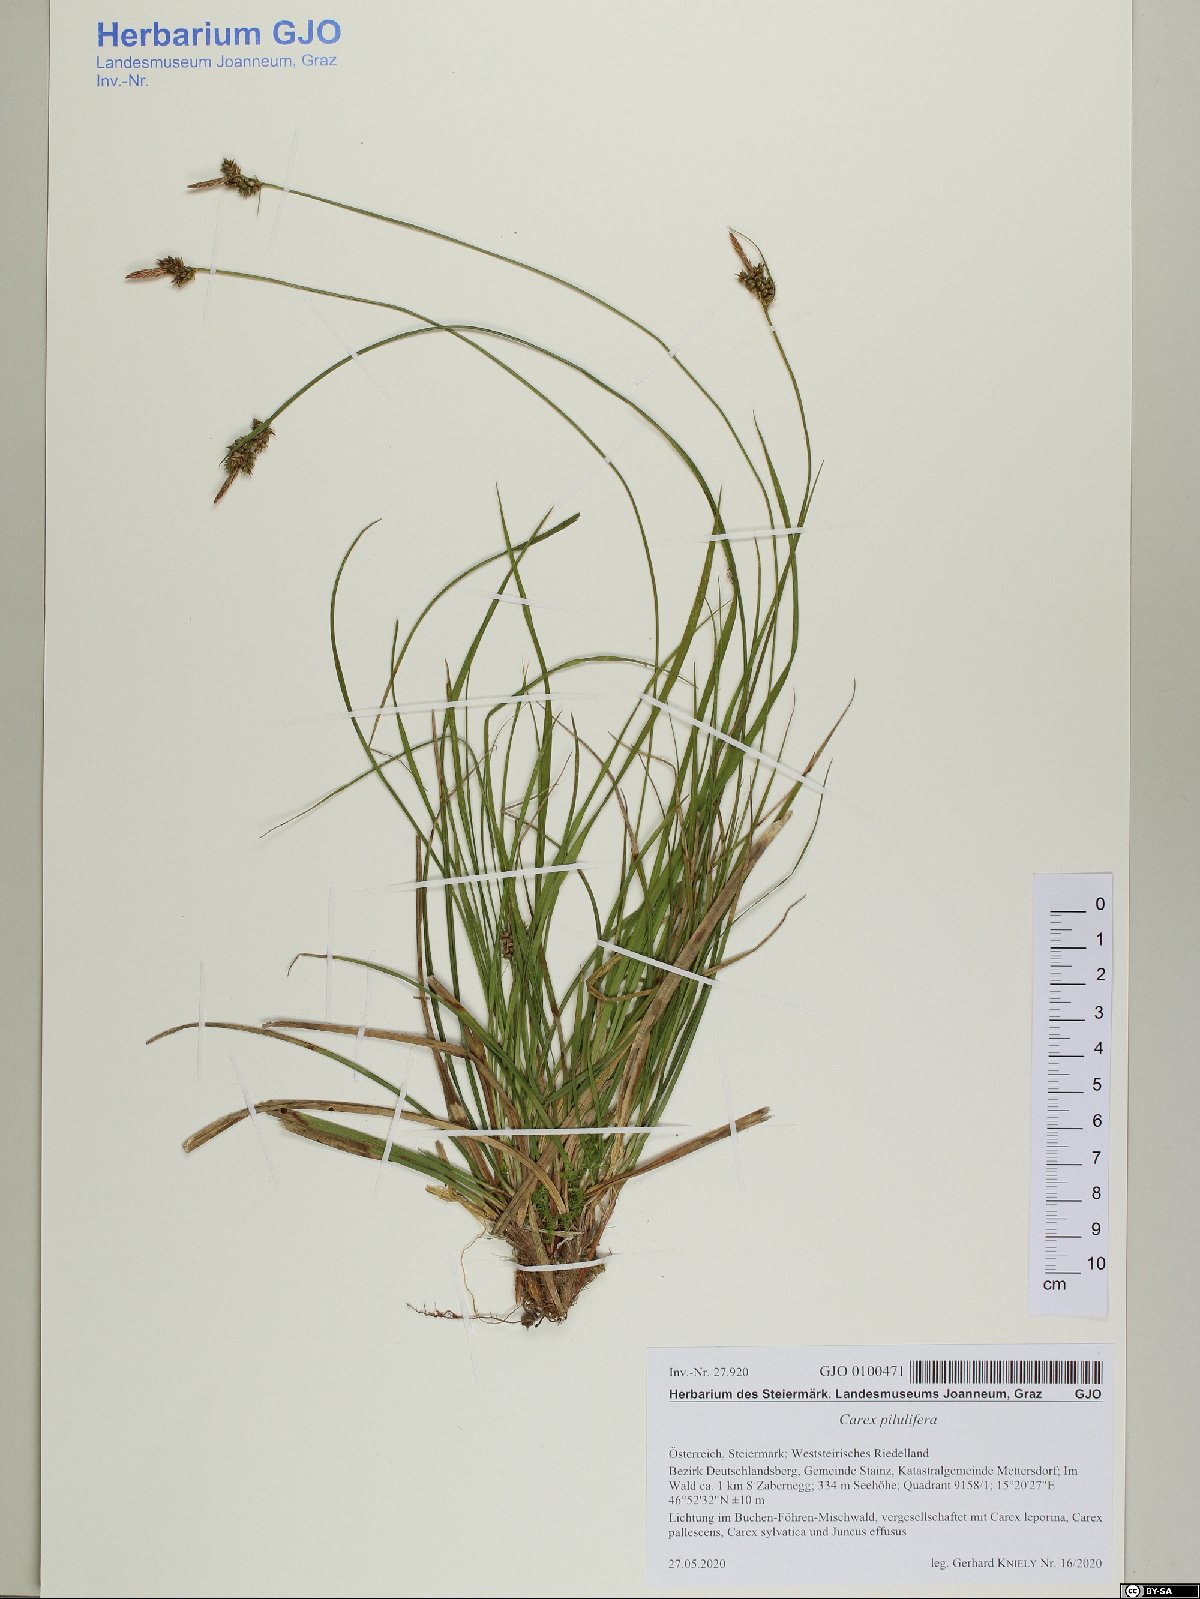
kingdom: Plantae
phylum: Tracheophyta
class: Liliopsida
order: Poales
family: Cyperaceae
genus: Carex
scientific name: Carex pilulifera
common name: Pill sedge
